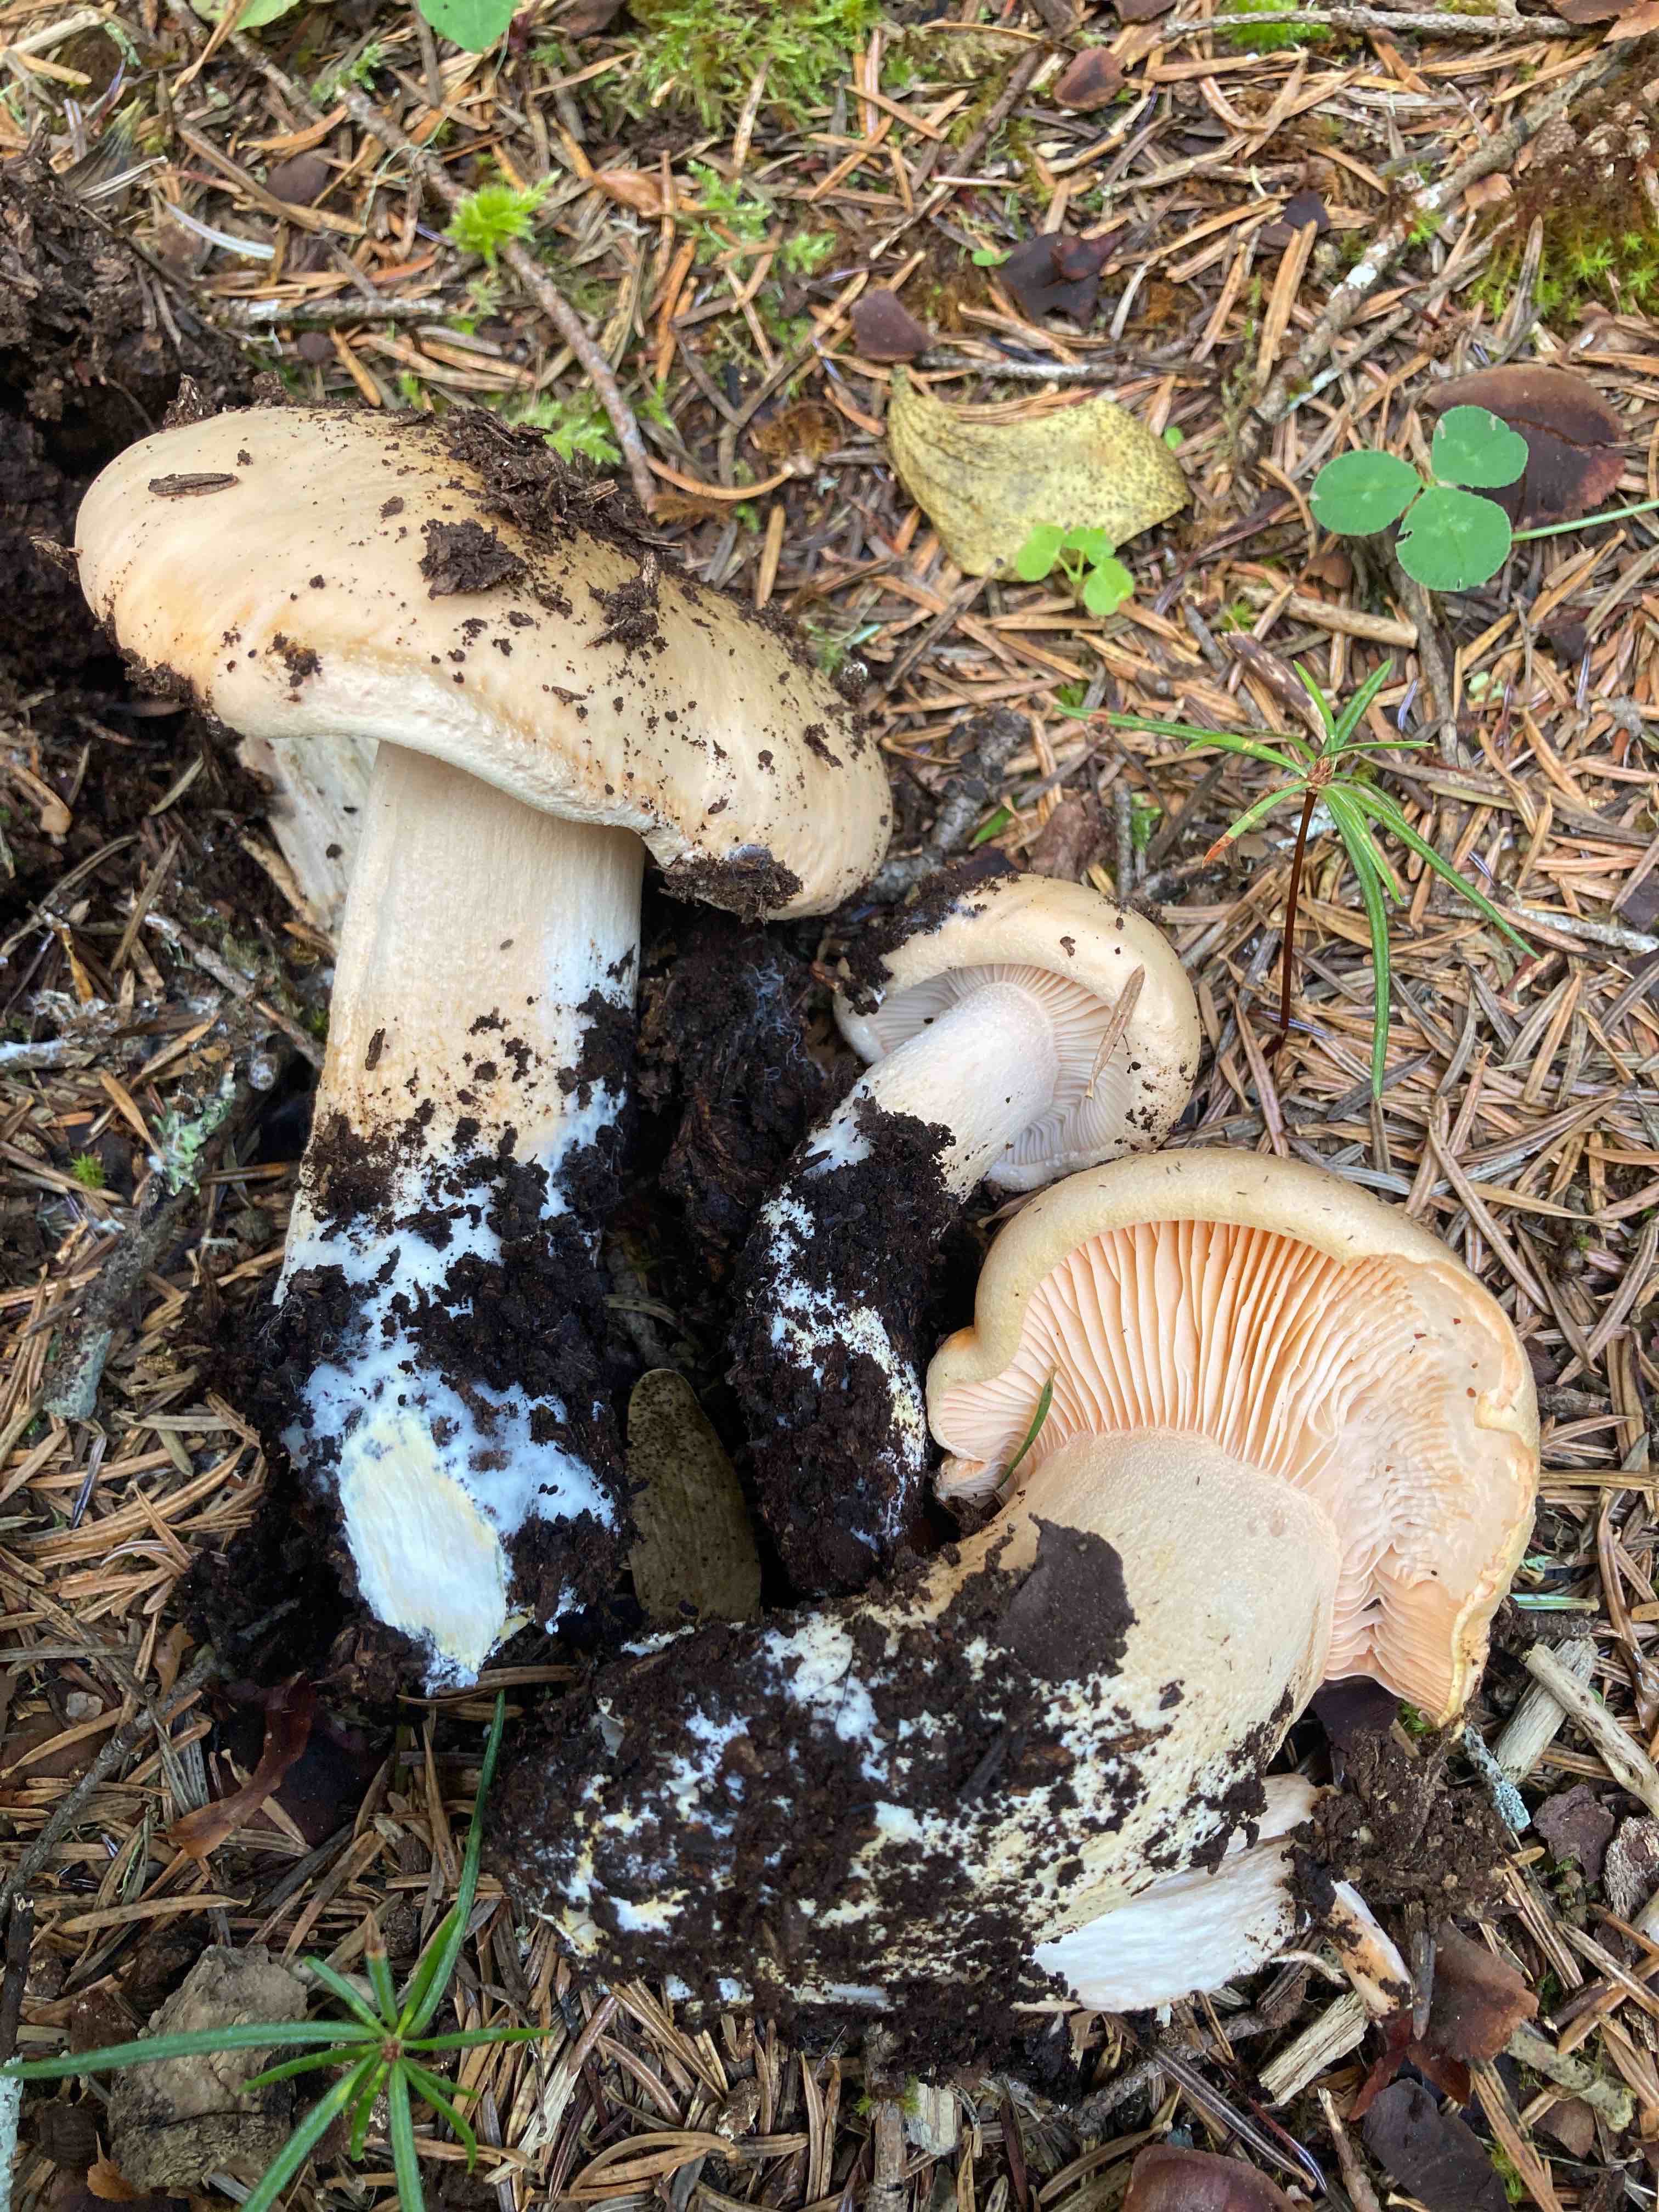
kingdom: Fungi
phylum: Basidiomycota
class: Agaricomycetes
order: Agaricales
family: Hygrophoraceae
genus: Hygrophorus
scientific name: Hygrophorus pudorinus
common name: Rosy woodwax
